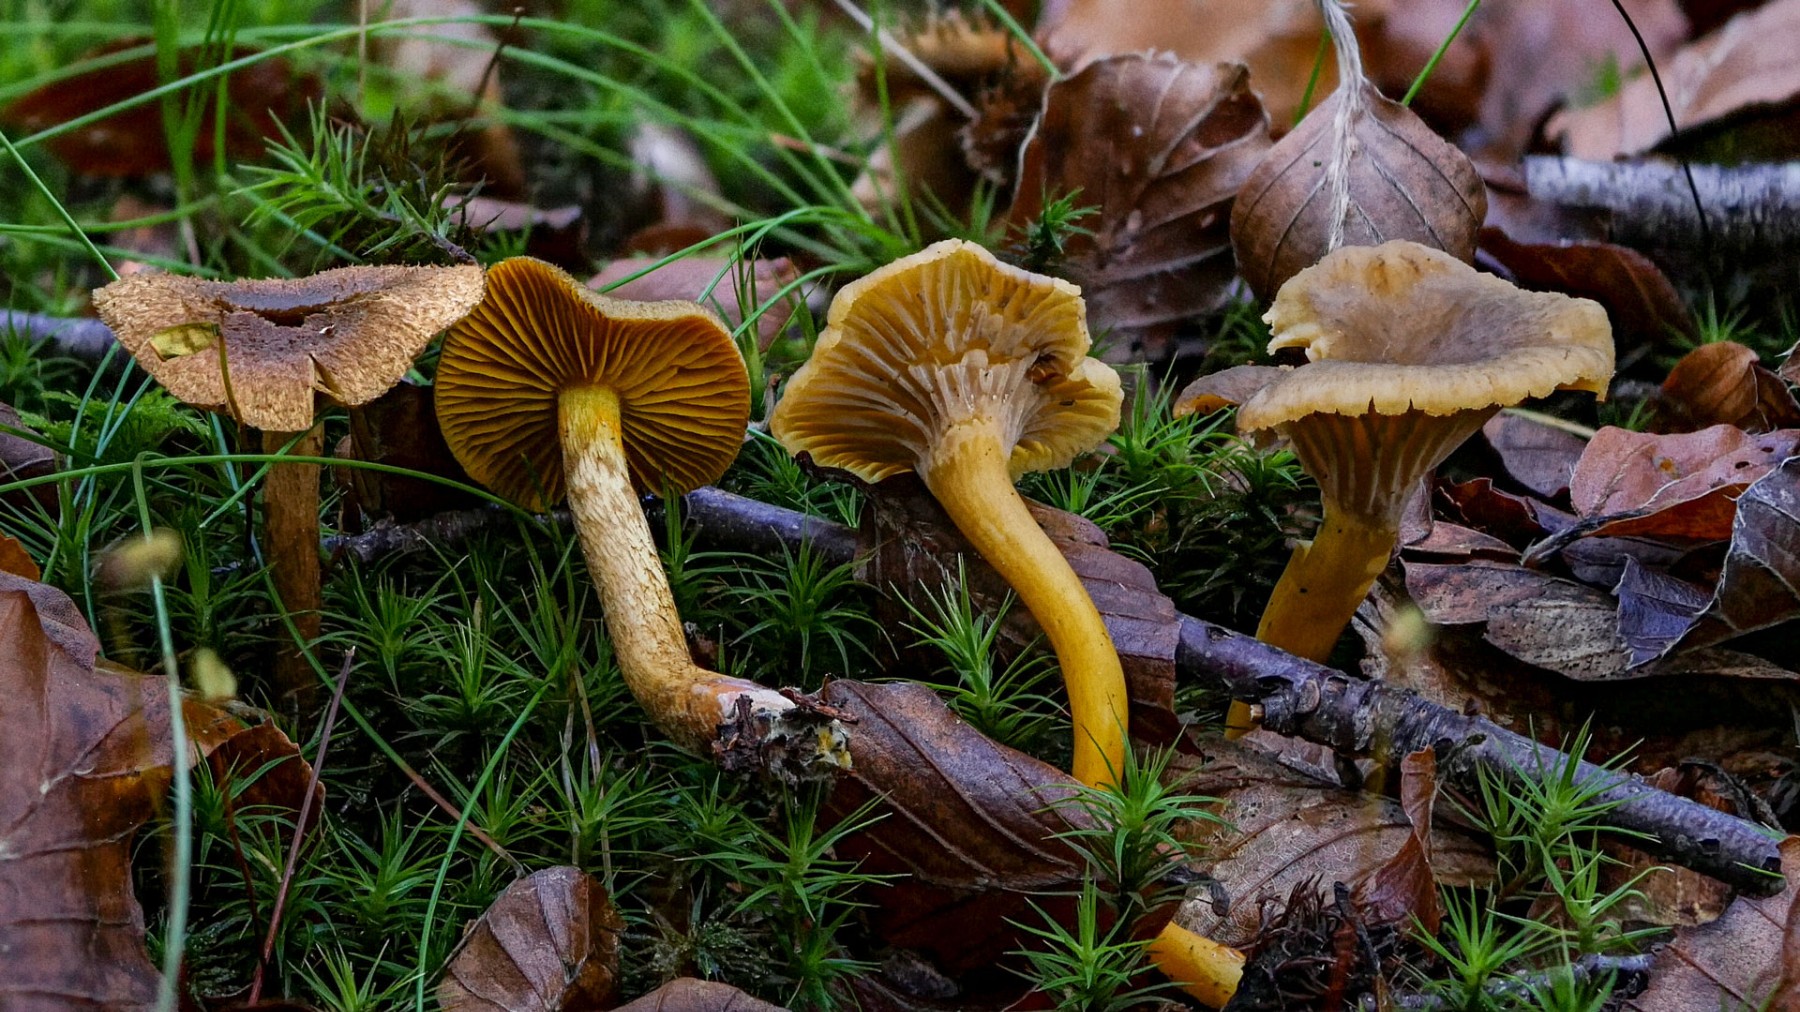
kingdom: Fungi
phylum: Basidiomycota
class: Agaricomycetes
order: Agaricales
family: Cortinariaceae
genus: Cortinarius
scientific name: Cortinarius
